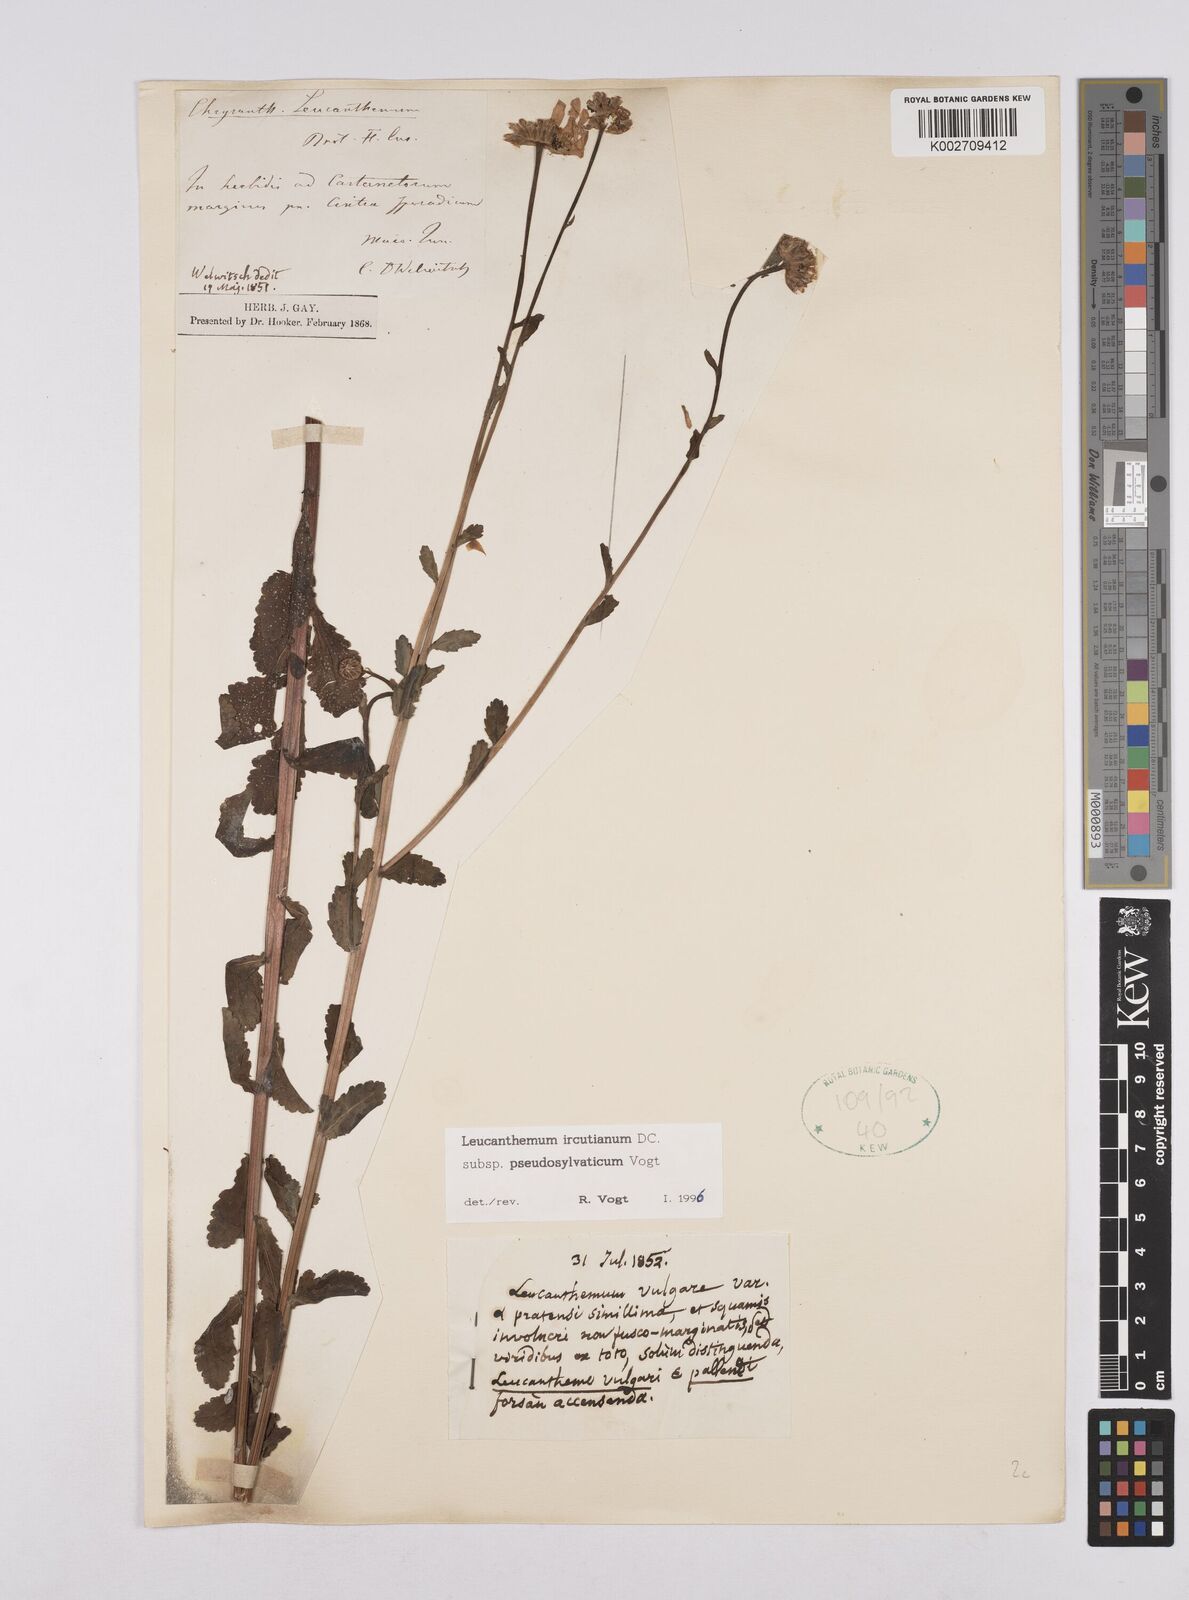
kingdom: Plantae
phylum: Tracheophyta
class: Magnoliopsida
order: Asterales
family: Asteraceae
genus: Leucanthemum
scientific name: Leucanthemum pseudosylvaticum
